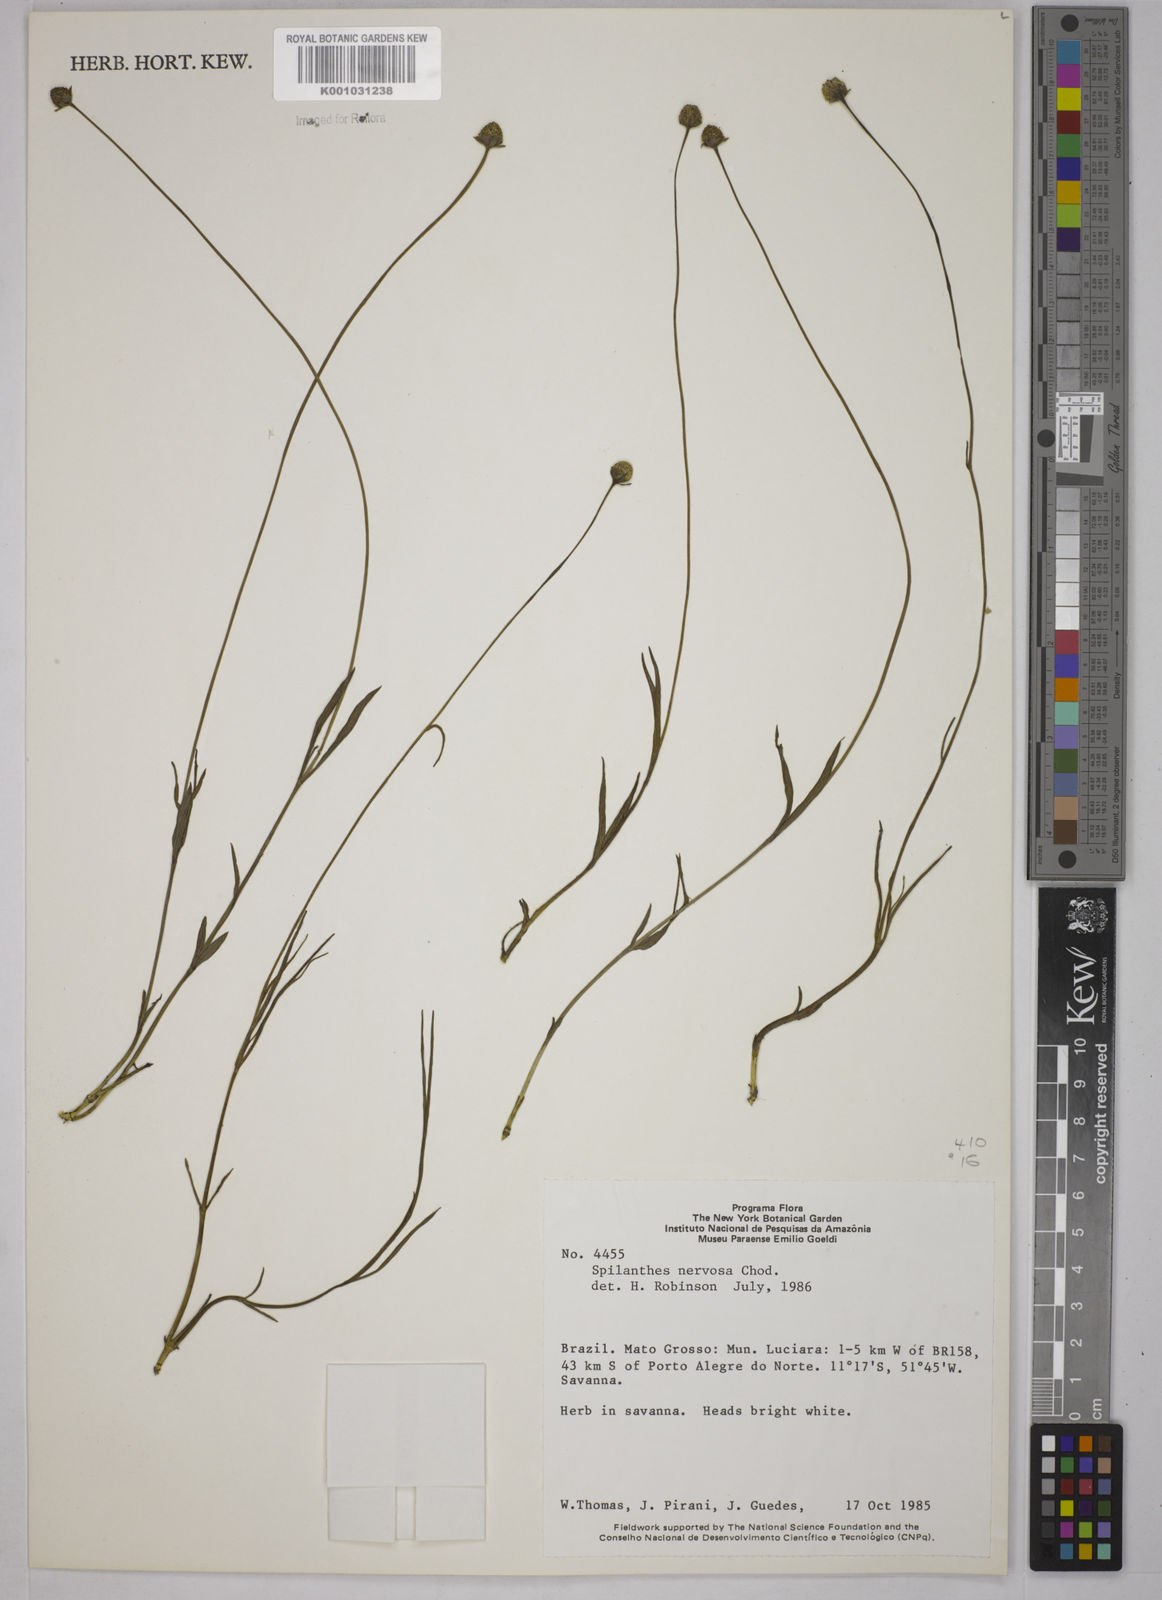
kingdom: Plantae
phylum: Tracheophyta
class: Magnoliopsida
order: Asterales
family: Asteraceae
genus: Spilanthes
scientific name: Spilanthes nervosa
